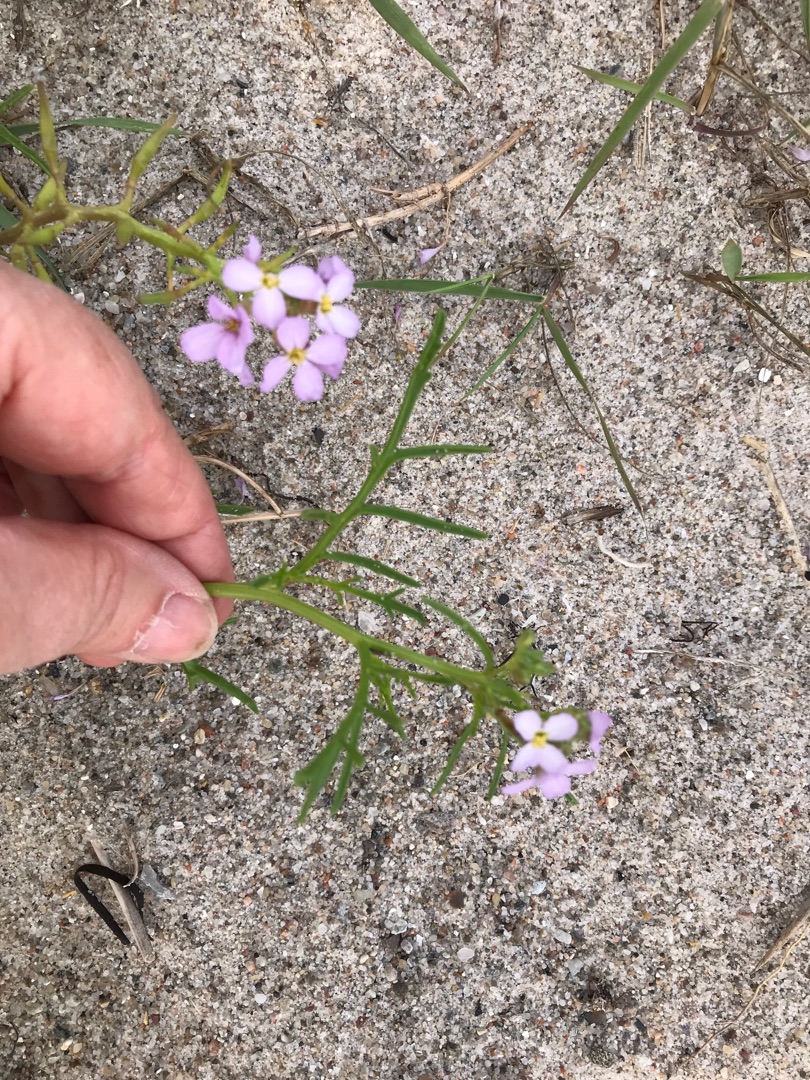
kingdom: Plantae
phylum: Tracheophyta
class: Magnoliopsida
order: Brassicales
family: Brassicaceae
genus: Cakile
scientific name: Cakile maritima
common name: Strandsennep
